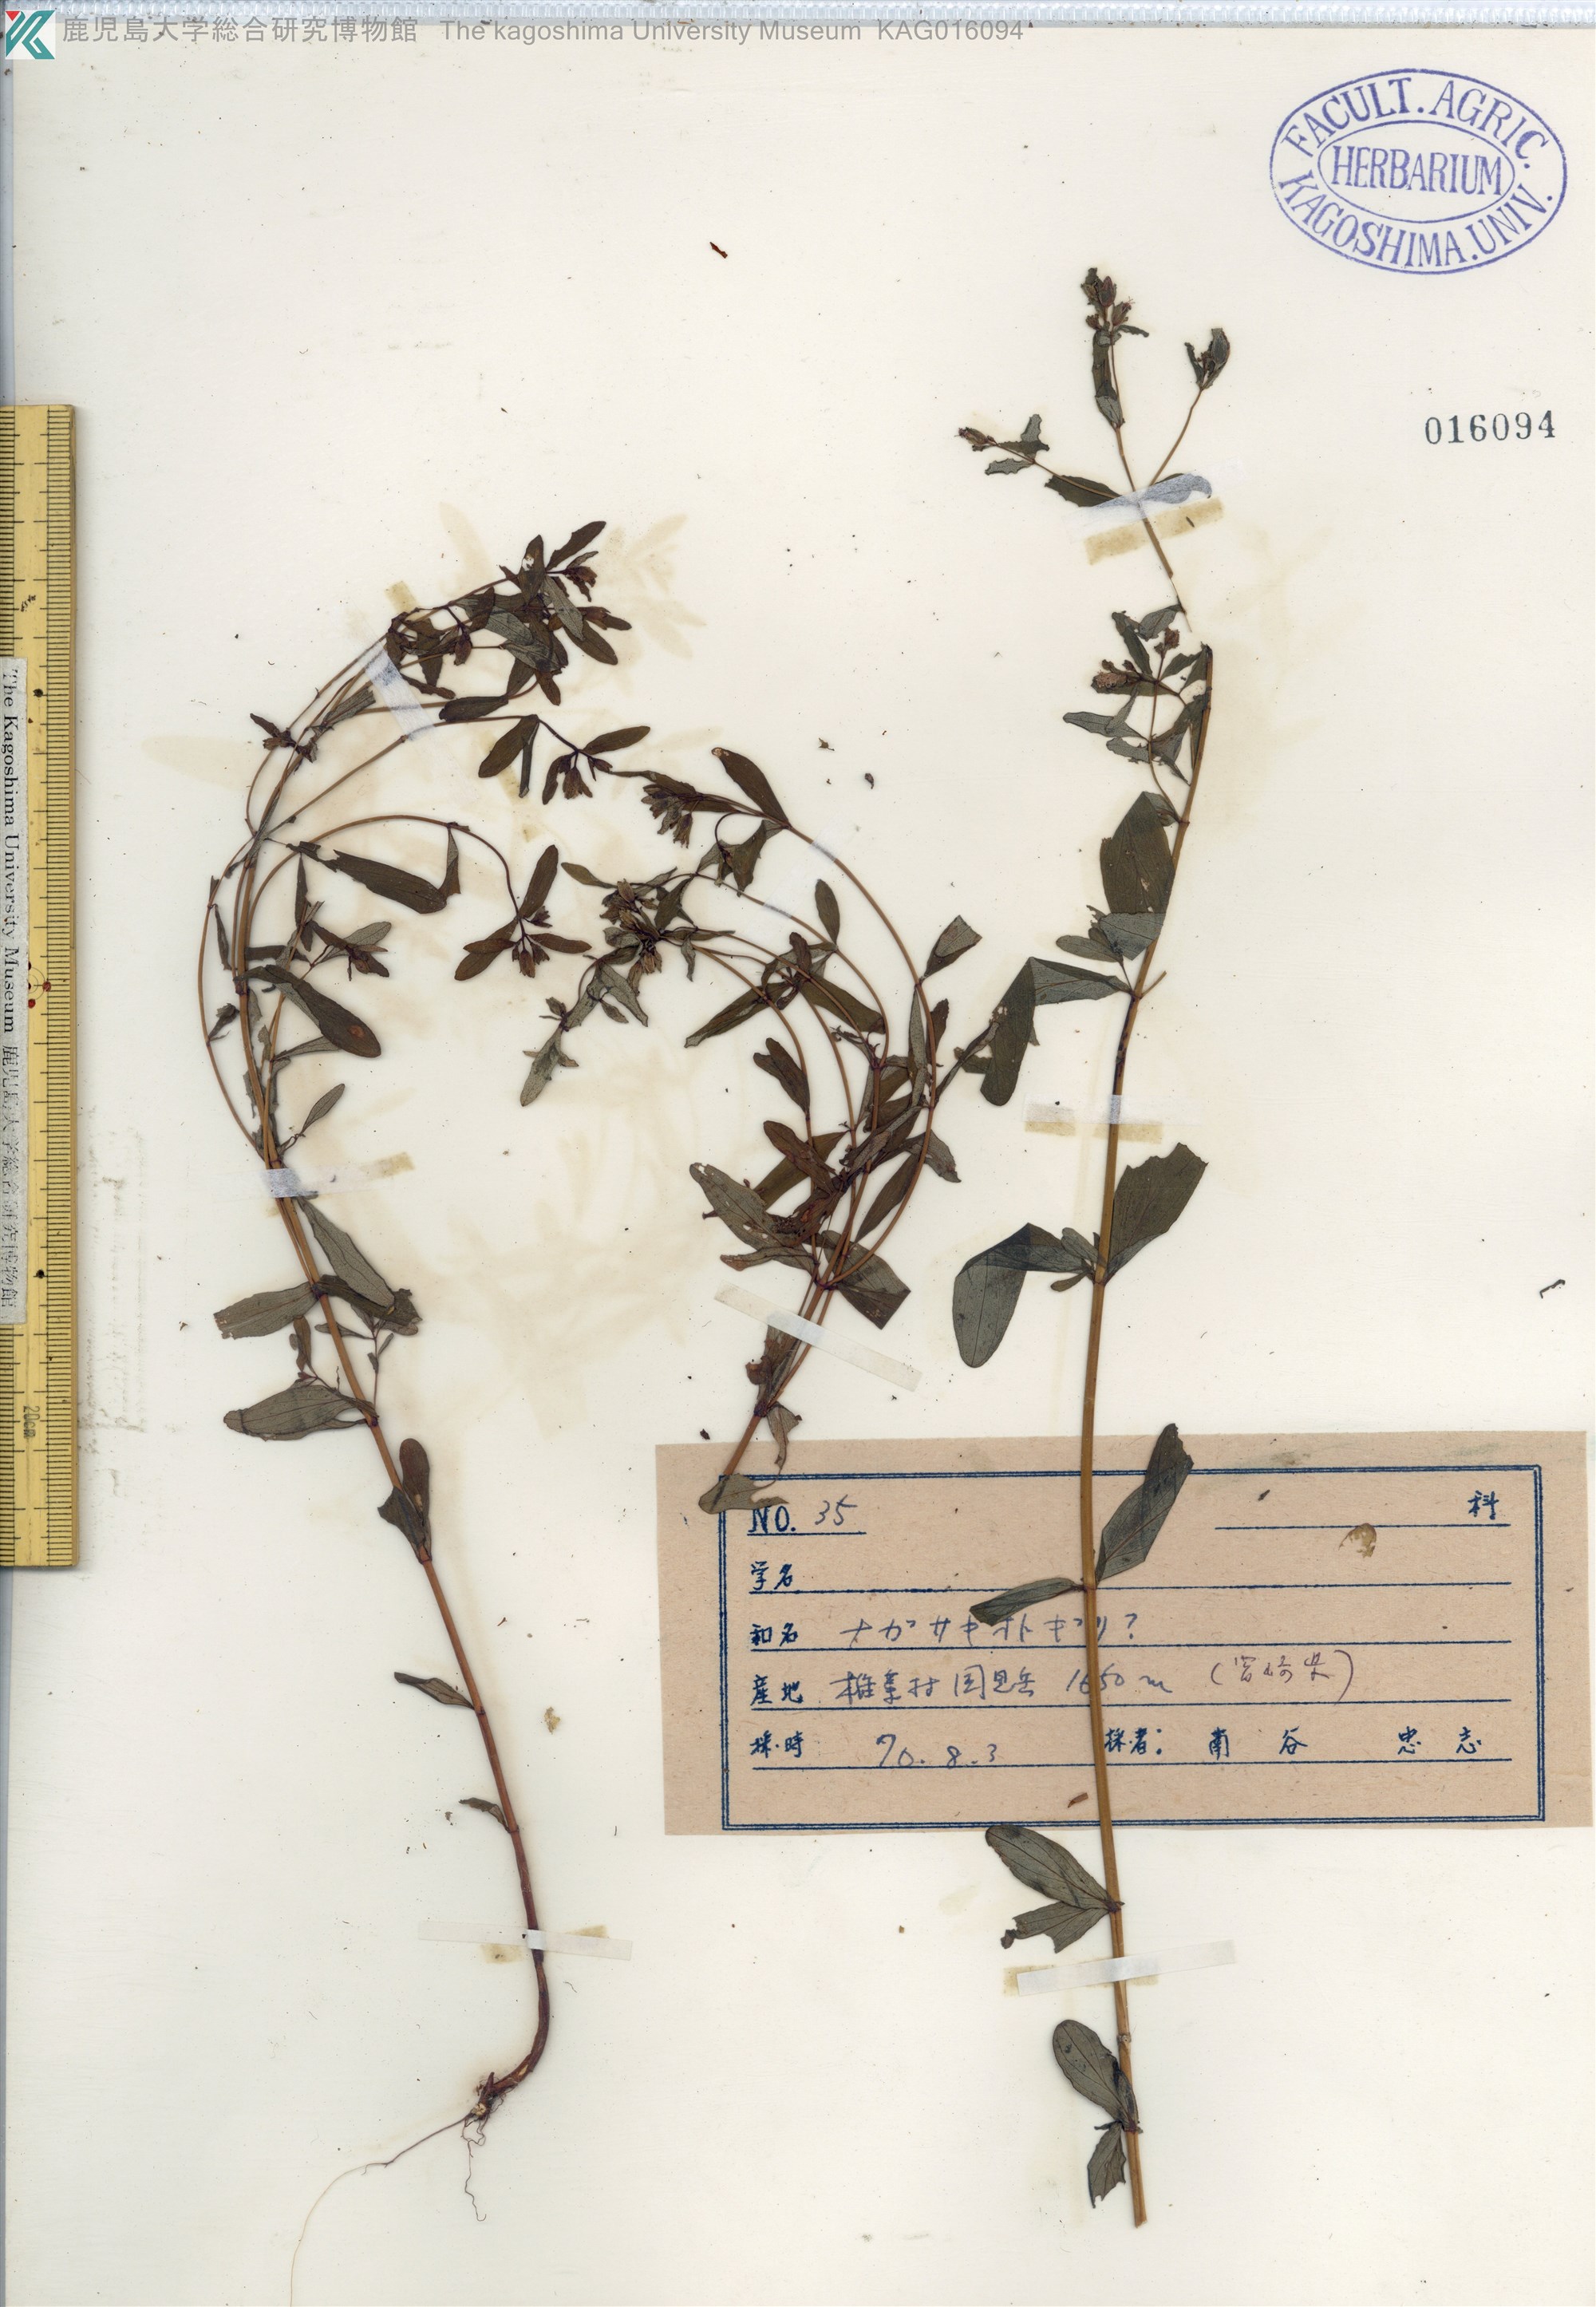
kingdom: Plantae
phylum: Tracheophyta
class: Magnoliopsida
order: Malpighiales
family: Hypericaceae
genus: Hypericum
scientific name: Hypericum pseudopetiolatum
